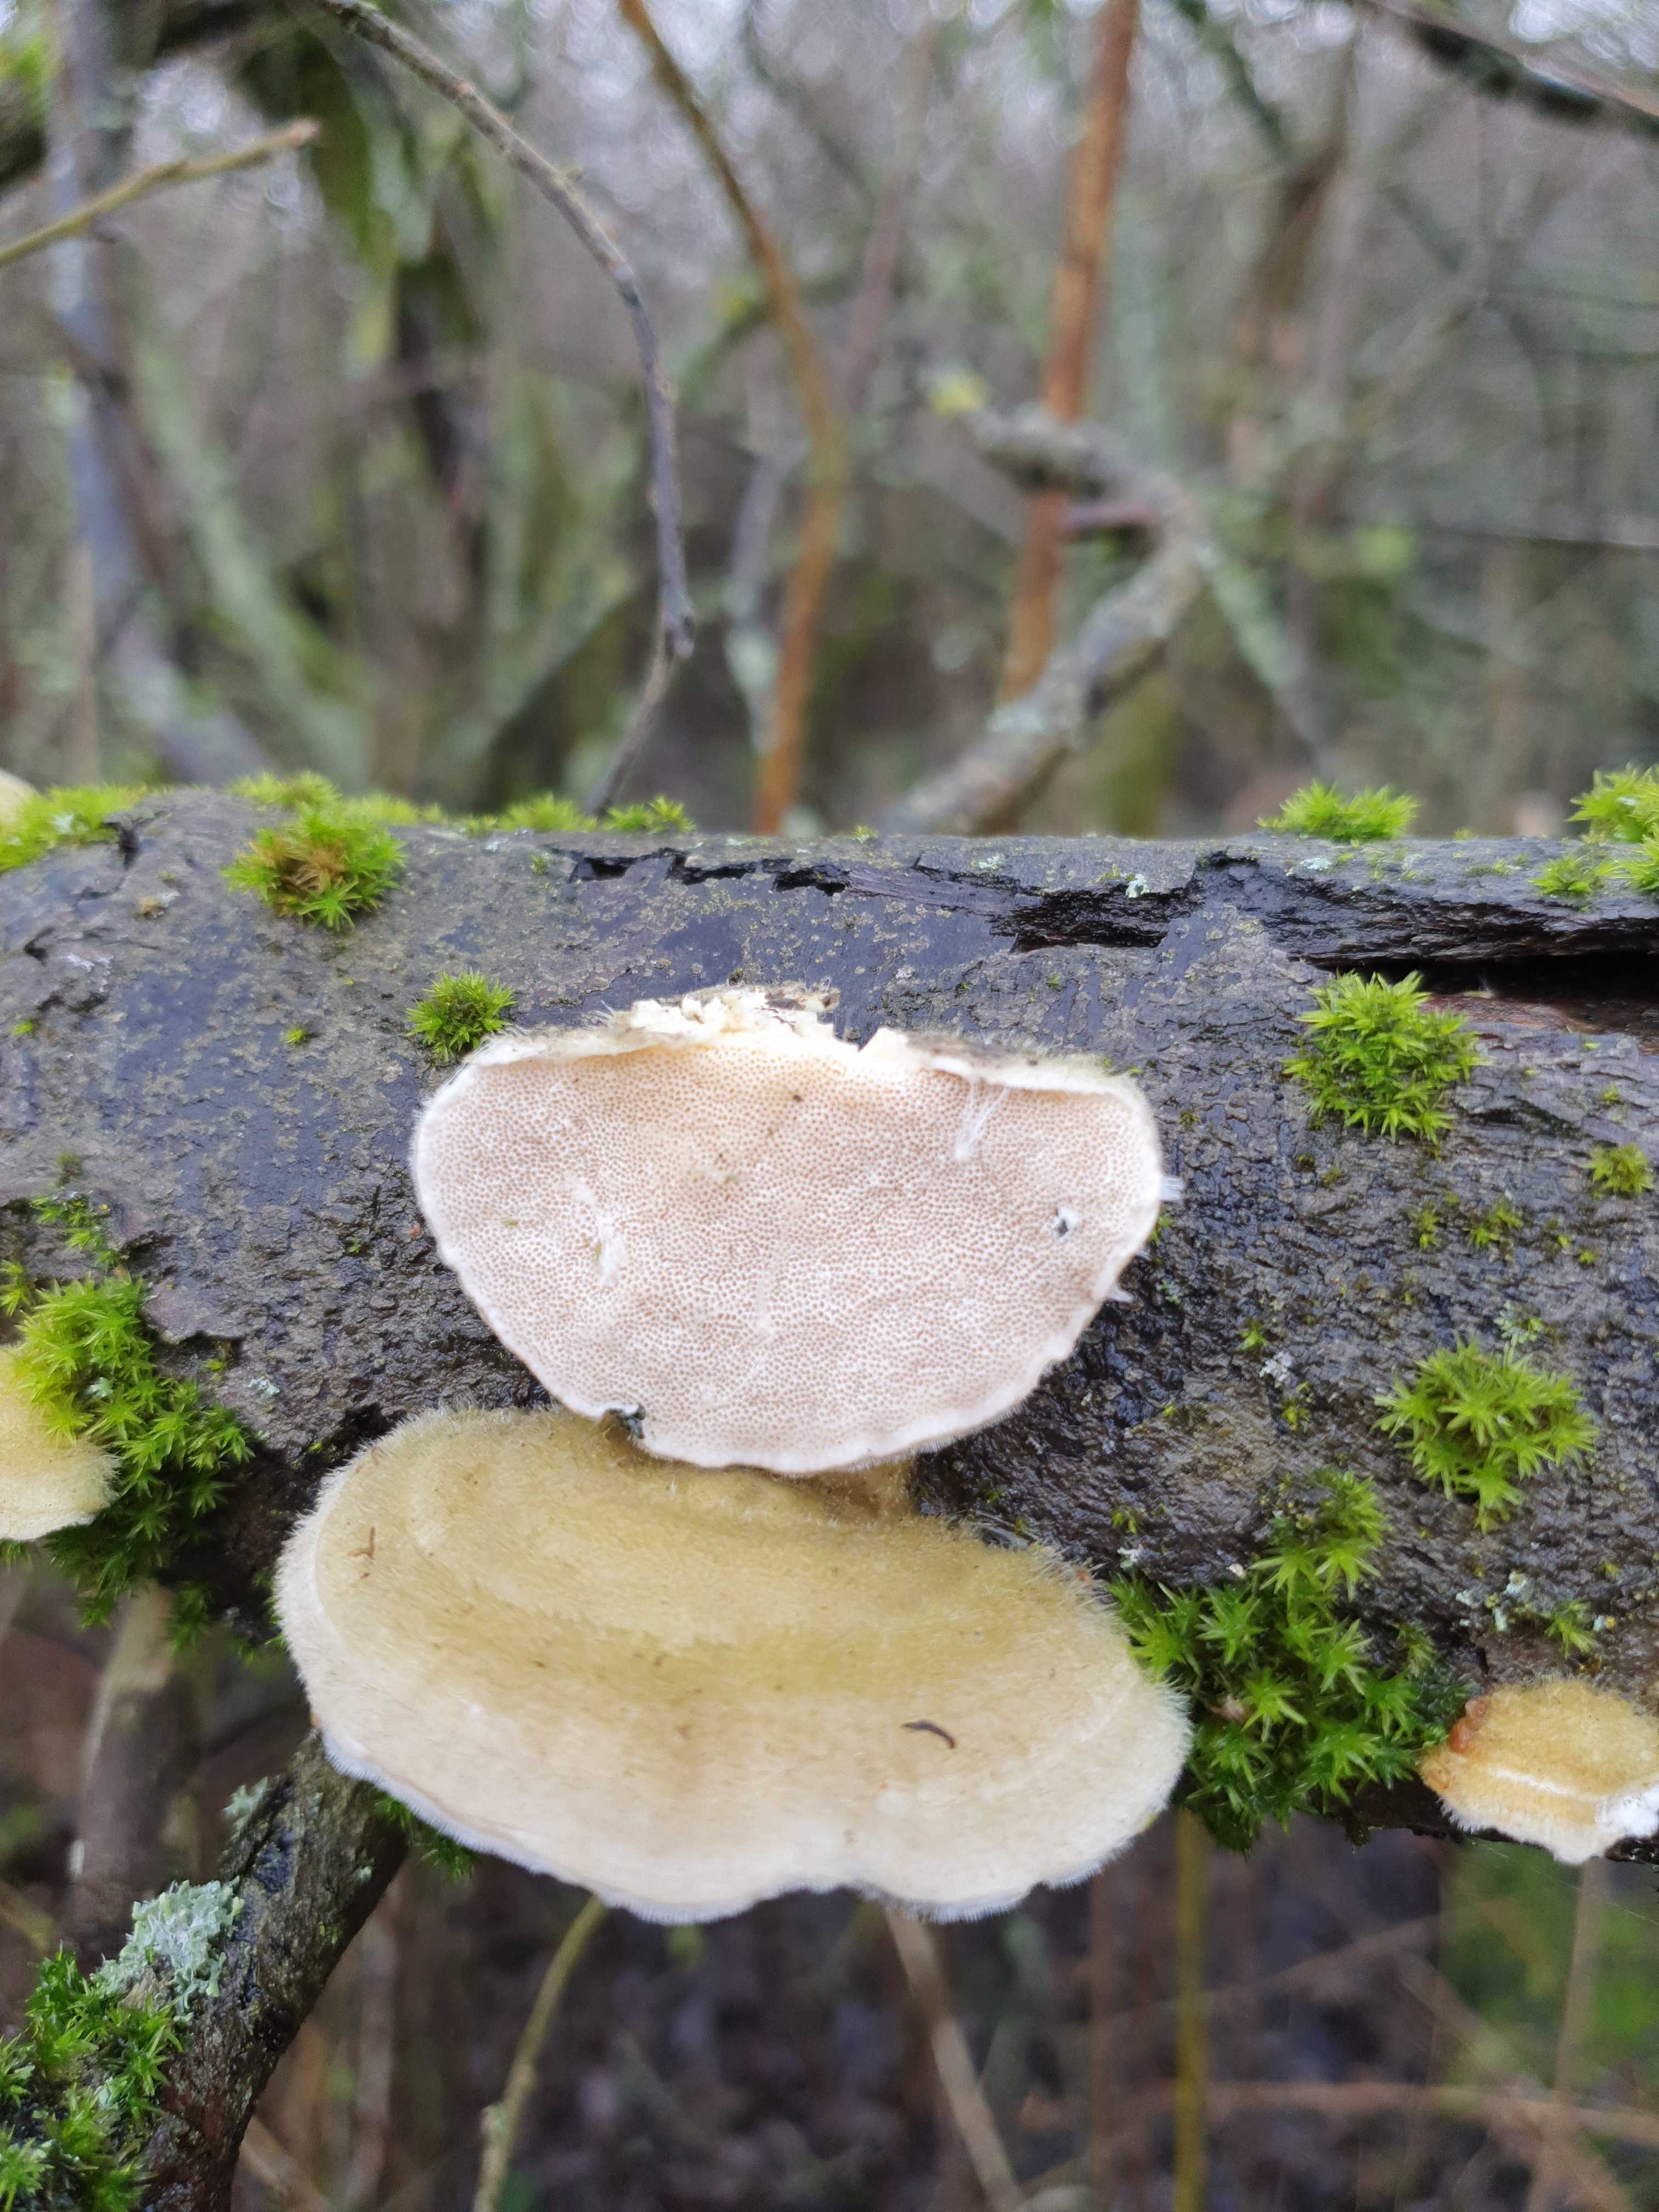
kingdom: Fungi
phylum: Basidiomycota
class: Agaricomycetes
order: Polyporales
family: Polyporaceae
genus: Trametes
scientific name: Trametes hirsuta
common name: håret læderporesvamp
